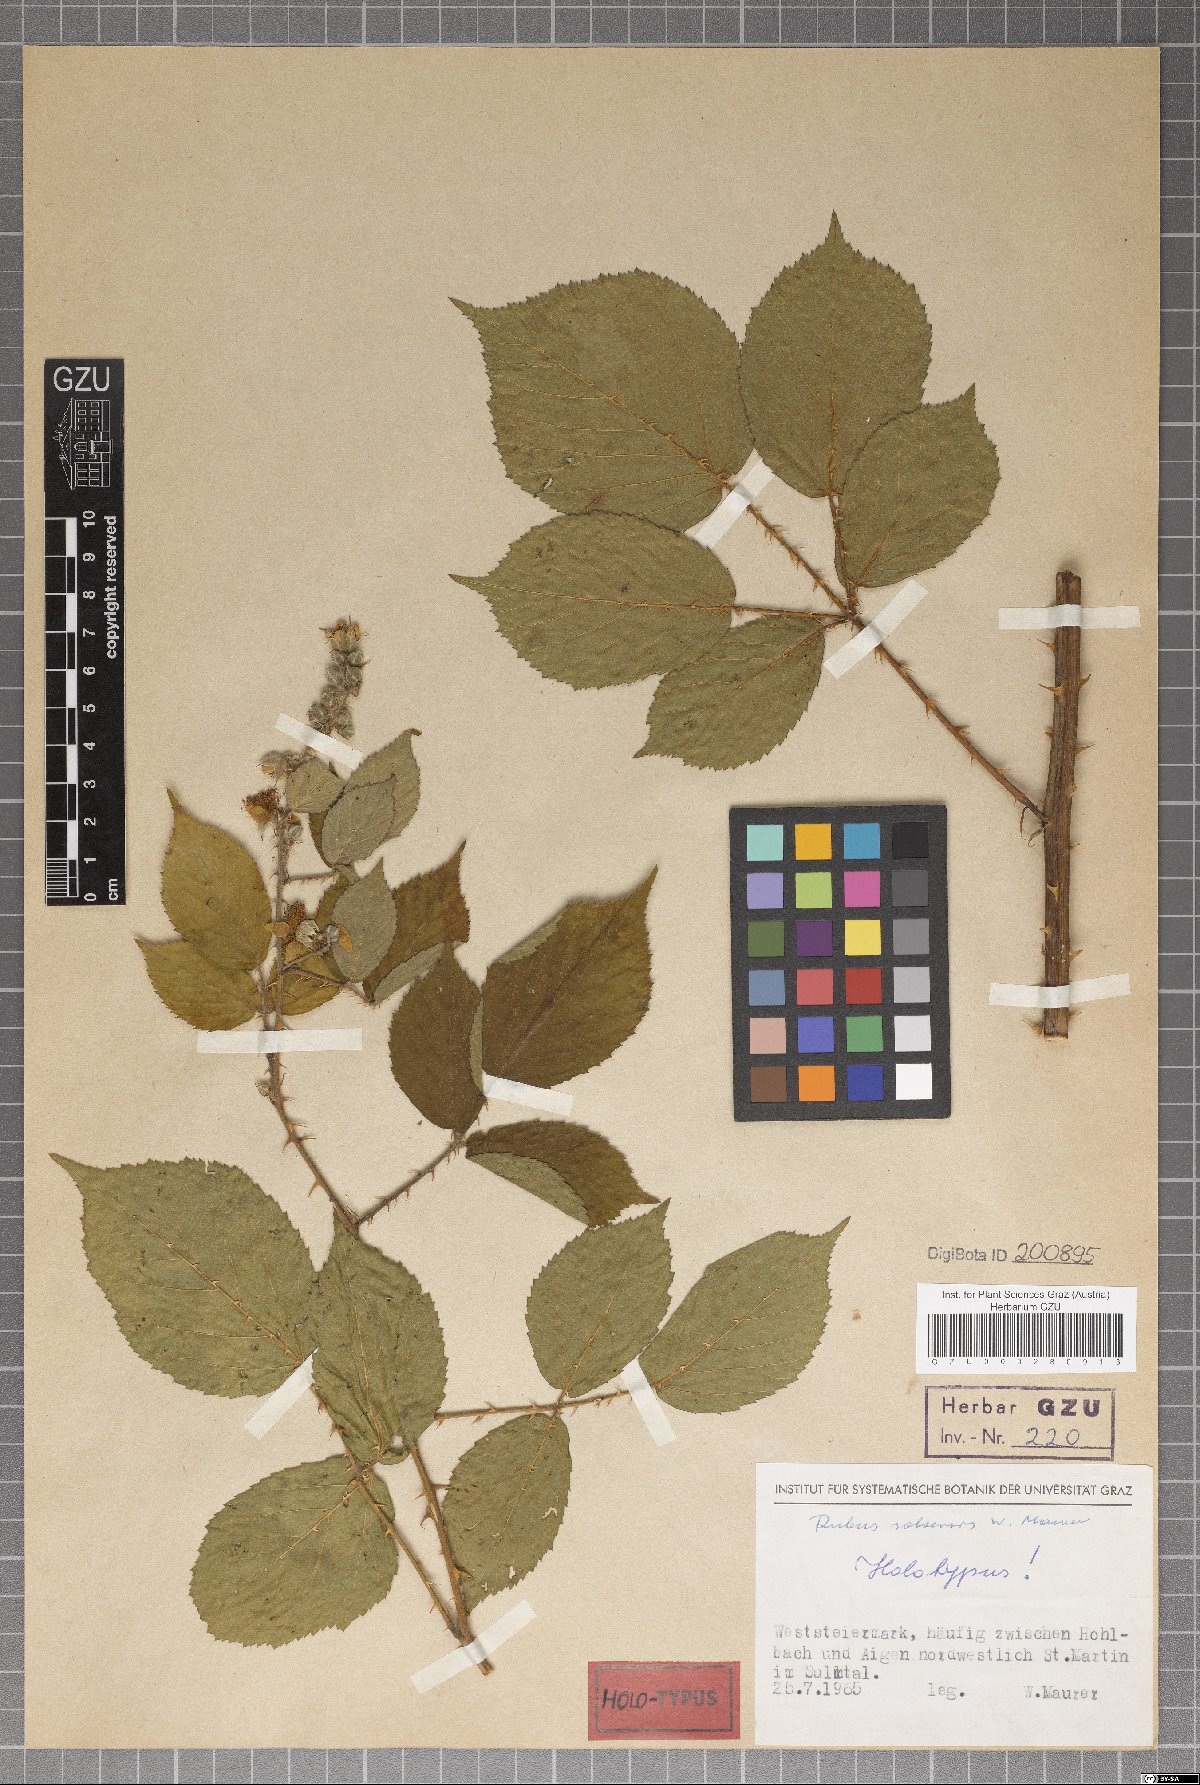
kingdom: Plantae
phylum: Tracheophyta
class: Magnoliopsida
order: Rosales
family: Rosaceae
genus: Rubus
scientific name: Rubus solvensis
